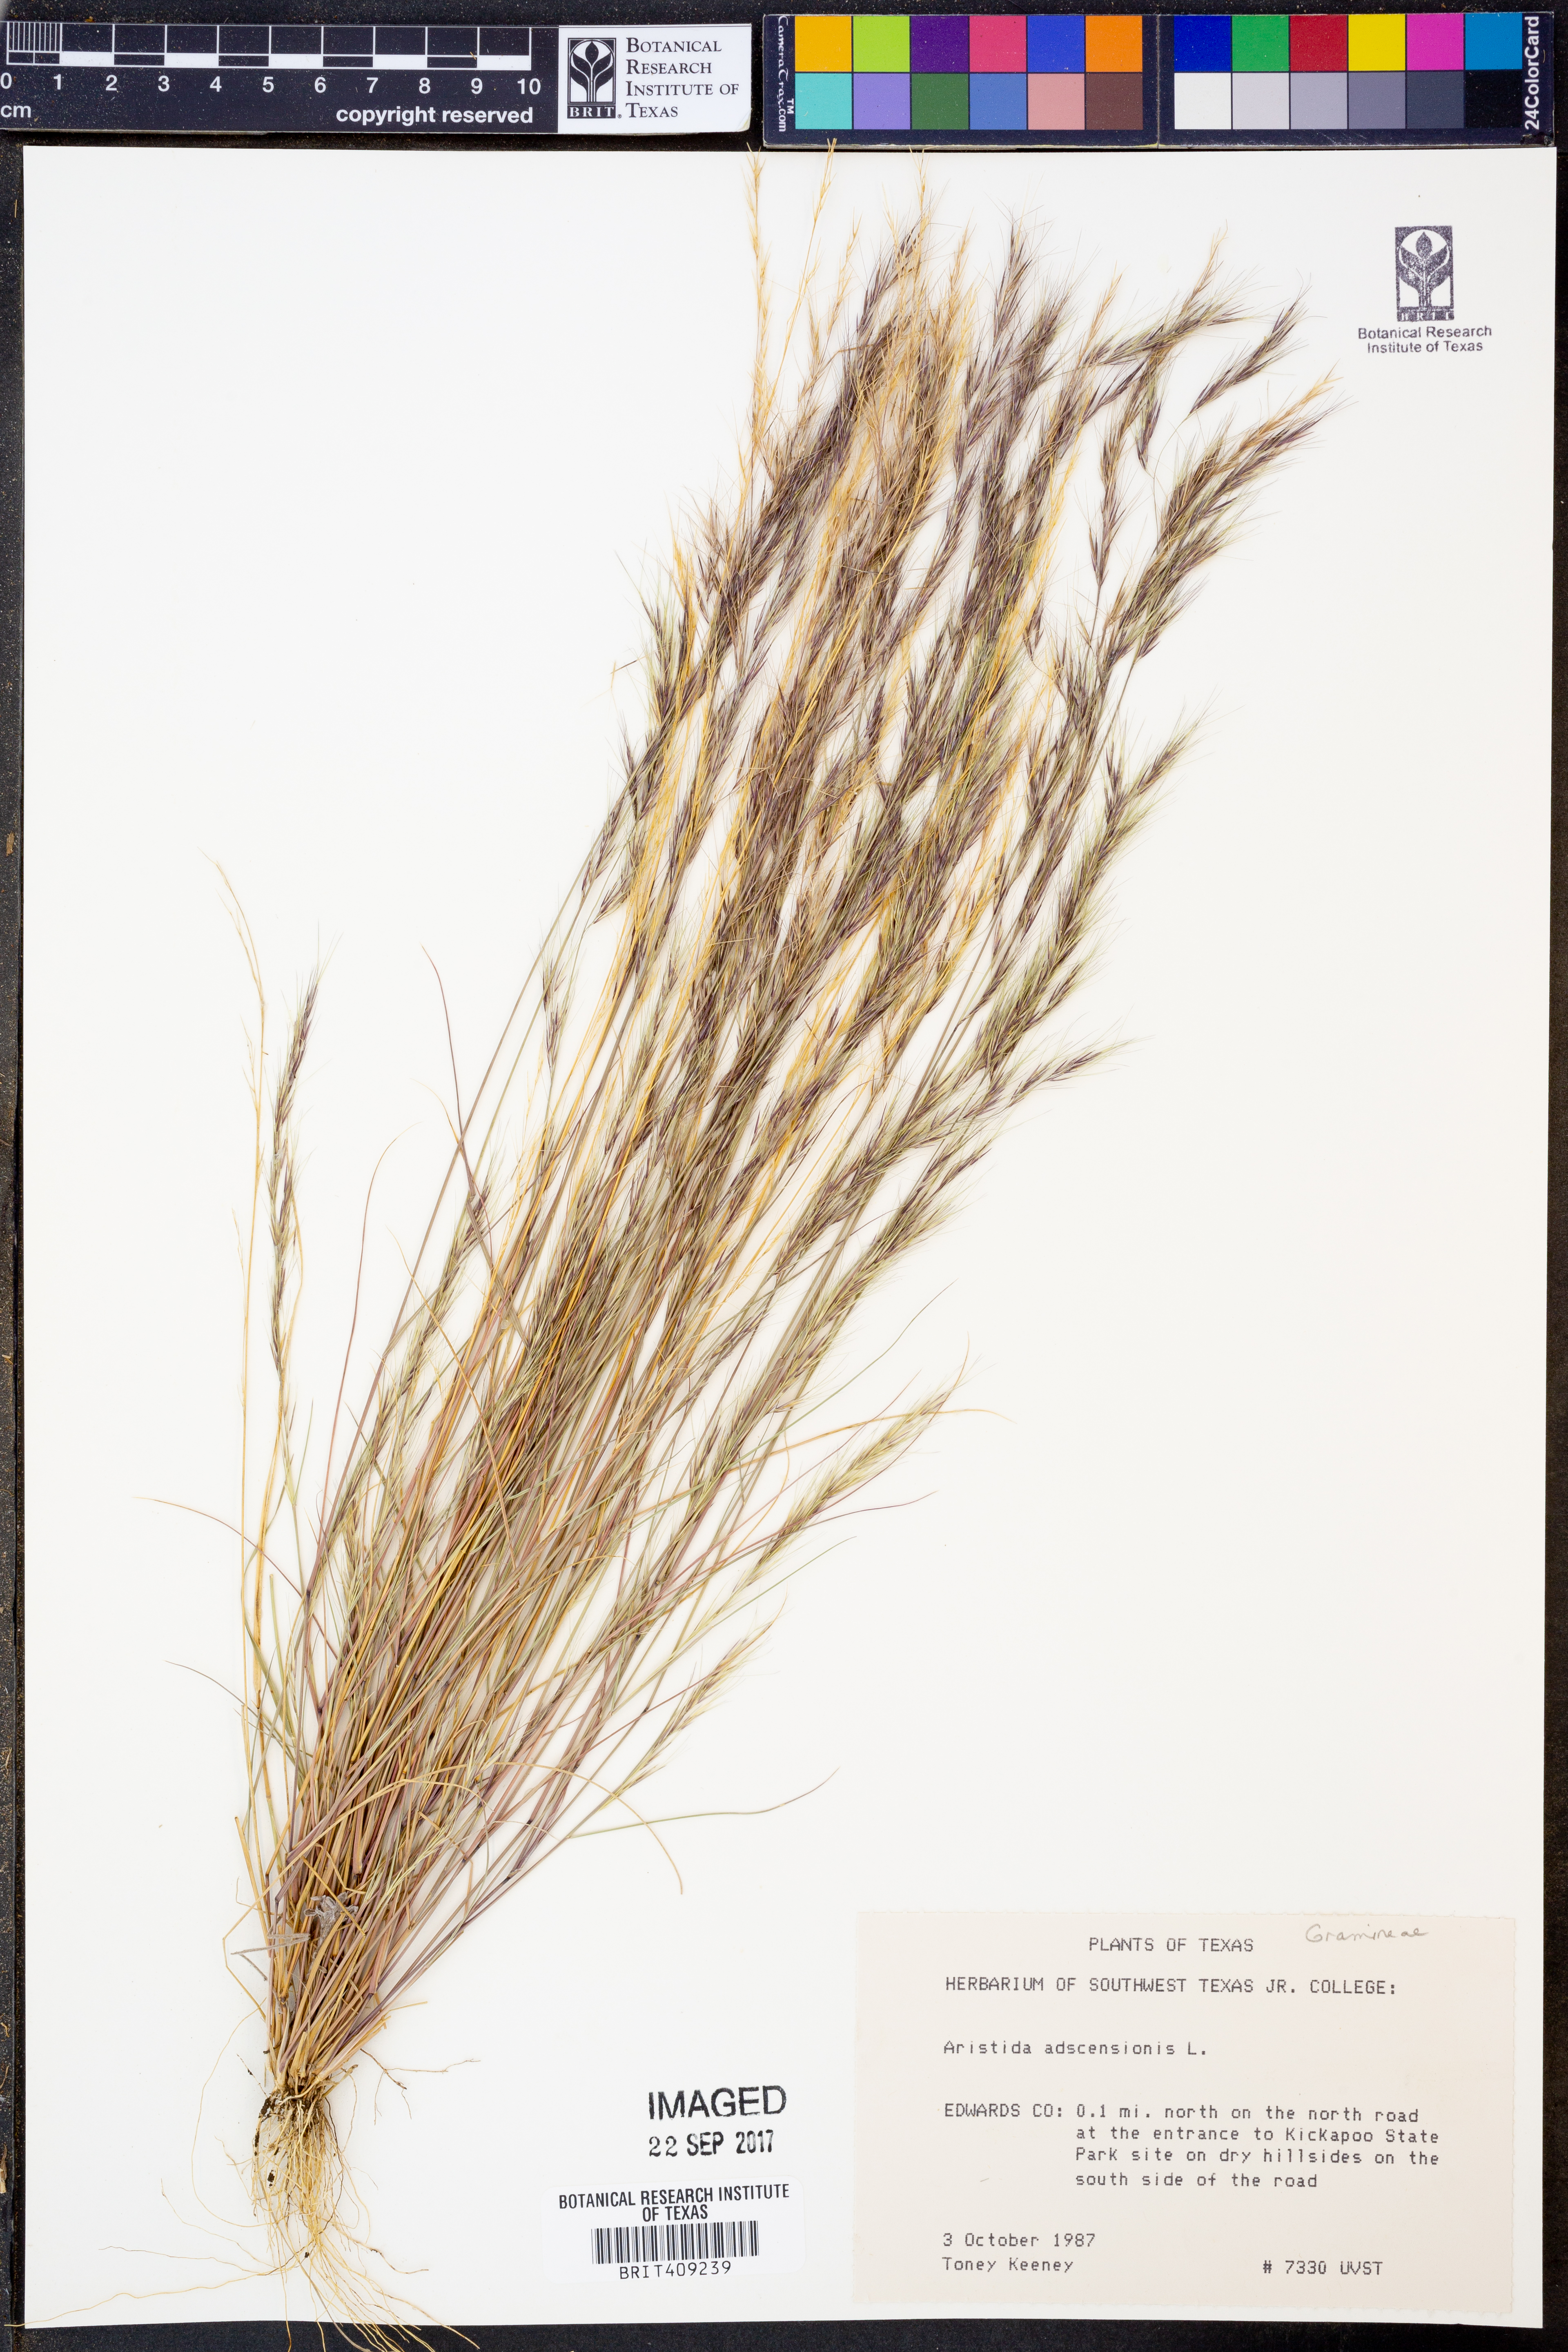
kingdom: Plantae
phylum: Tracheophyta
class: Liliopsida
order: Poales
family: Poaceae
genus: Aristida
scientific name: Aristida adscensionis
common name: Sixweeks threeawn
